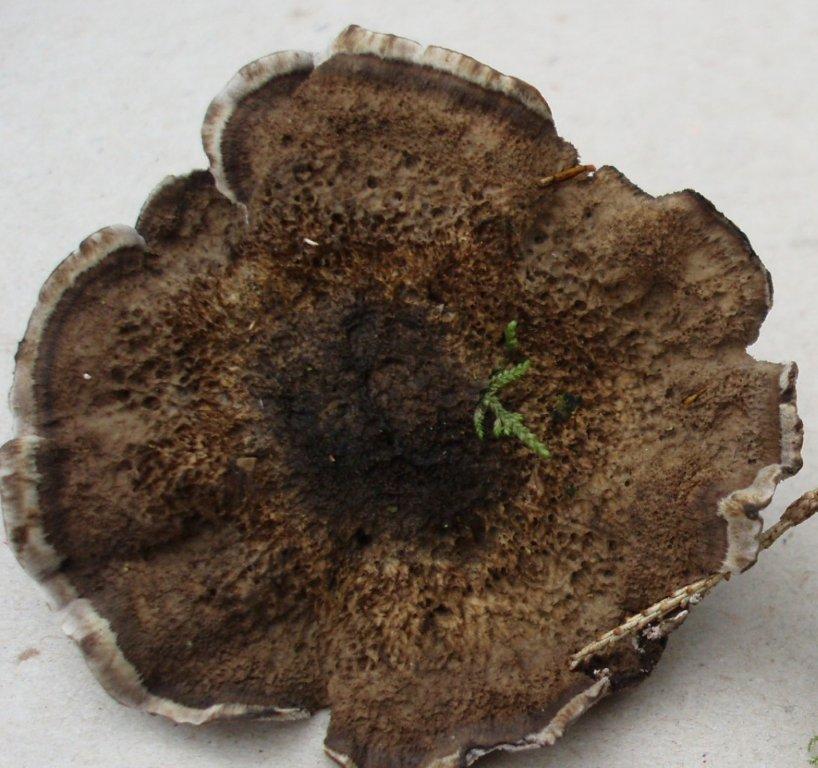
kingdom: Fungi
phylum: Basidiomycota
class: Agaricomycetes
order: Thelephorales
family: Thelephoraceae
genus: Phellodon
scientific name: Phellodon
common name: mørk duftpigsvamp
